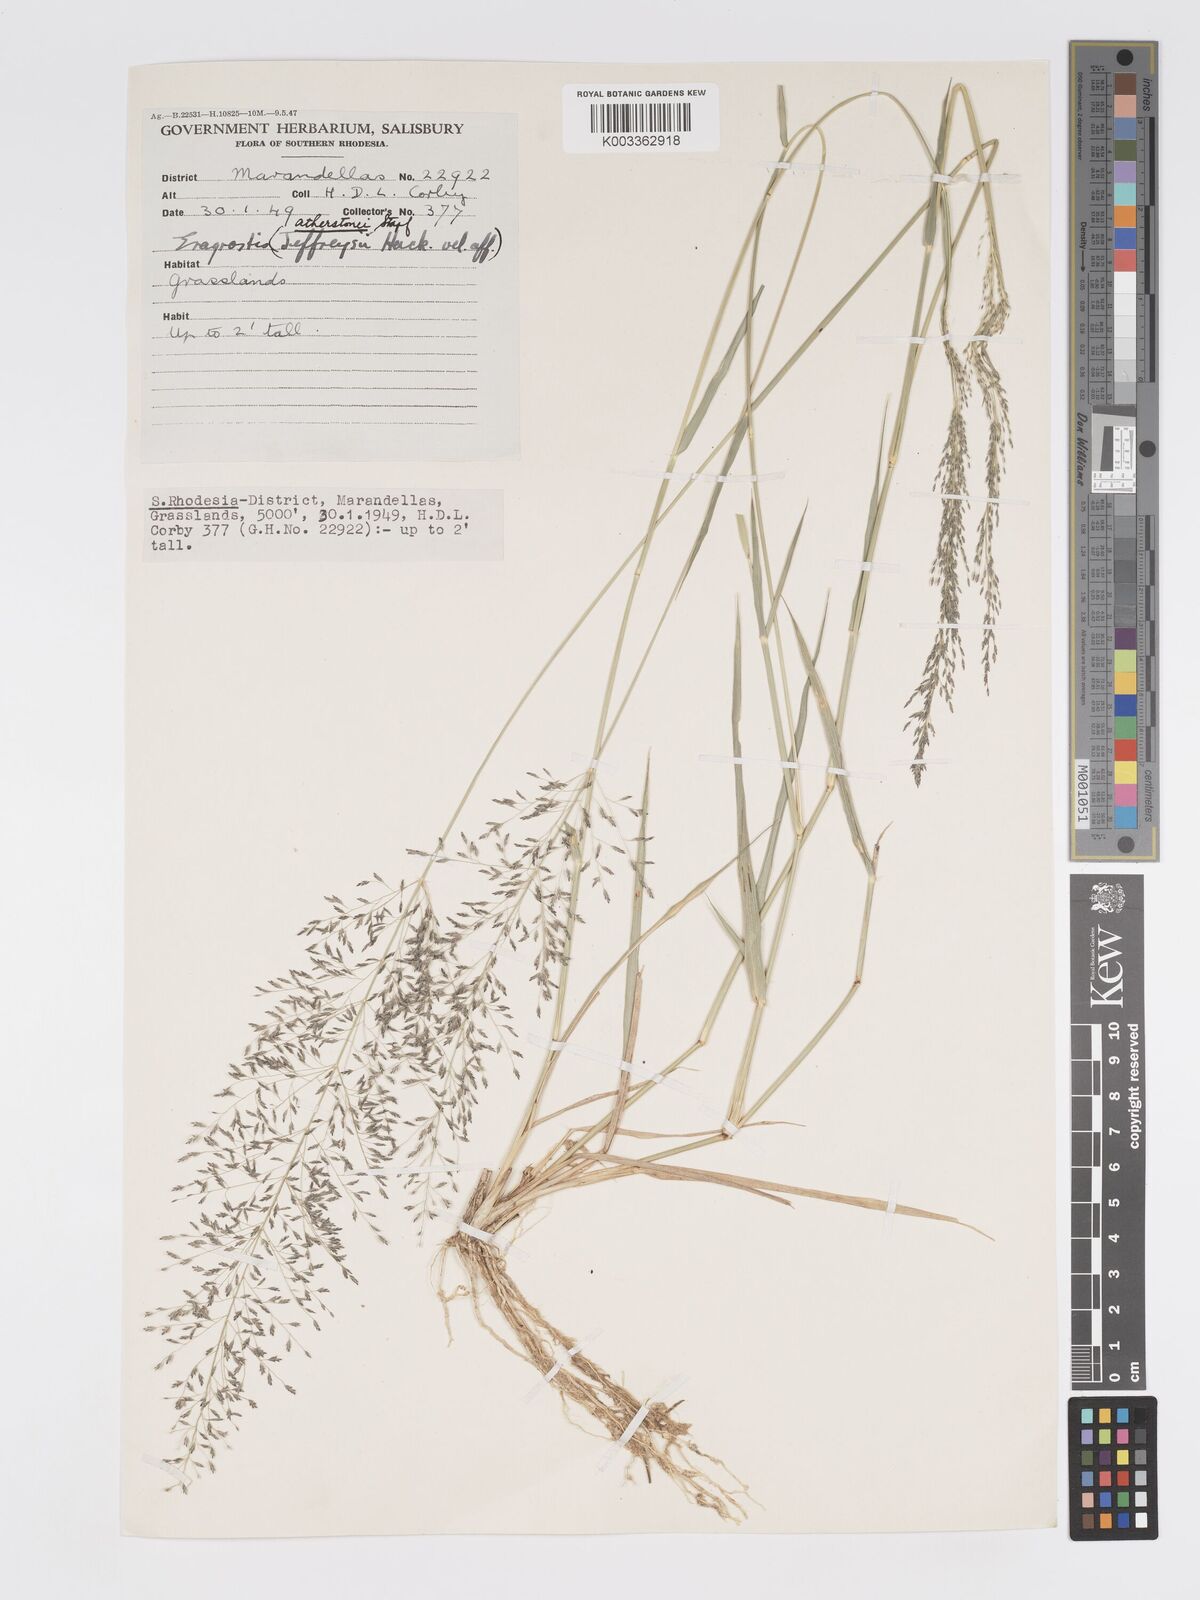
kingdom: Plantae
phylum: Tracheophyta
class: Liliopsida
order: Poales
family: Poaceae
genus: Eragrostis
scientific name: Eragrostis cylindriflora
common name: Cylinderflower lovegrass
